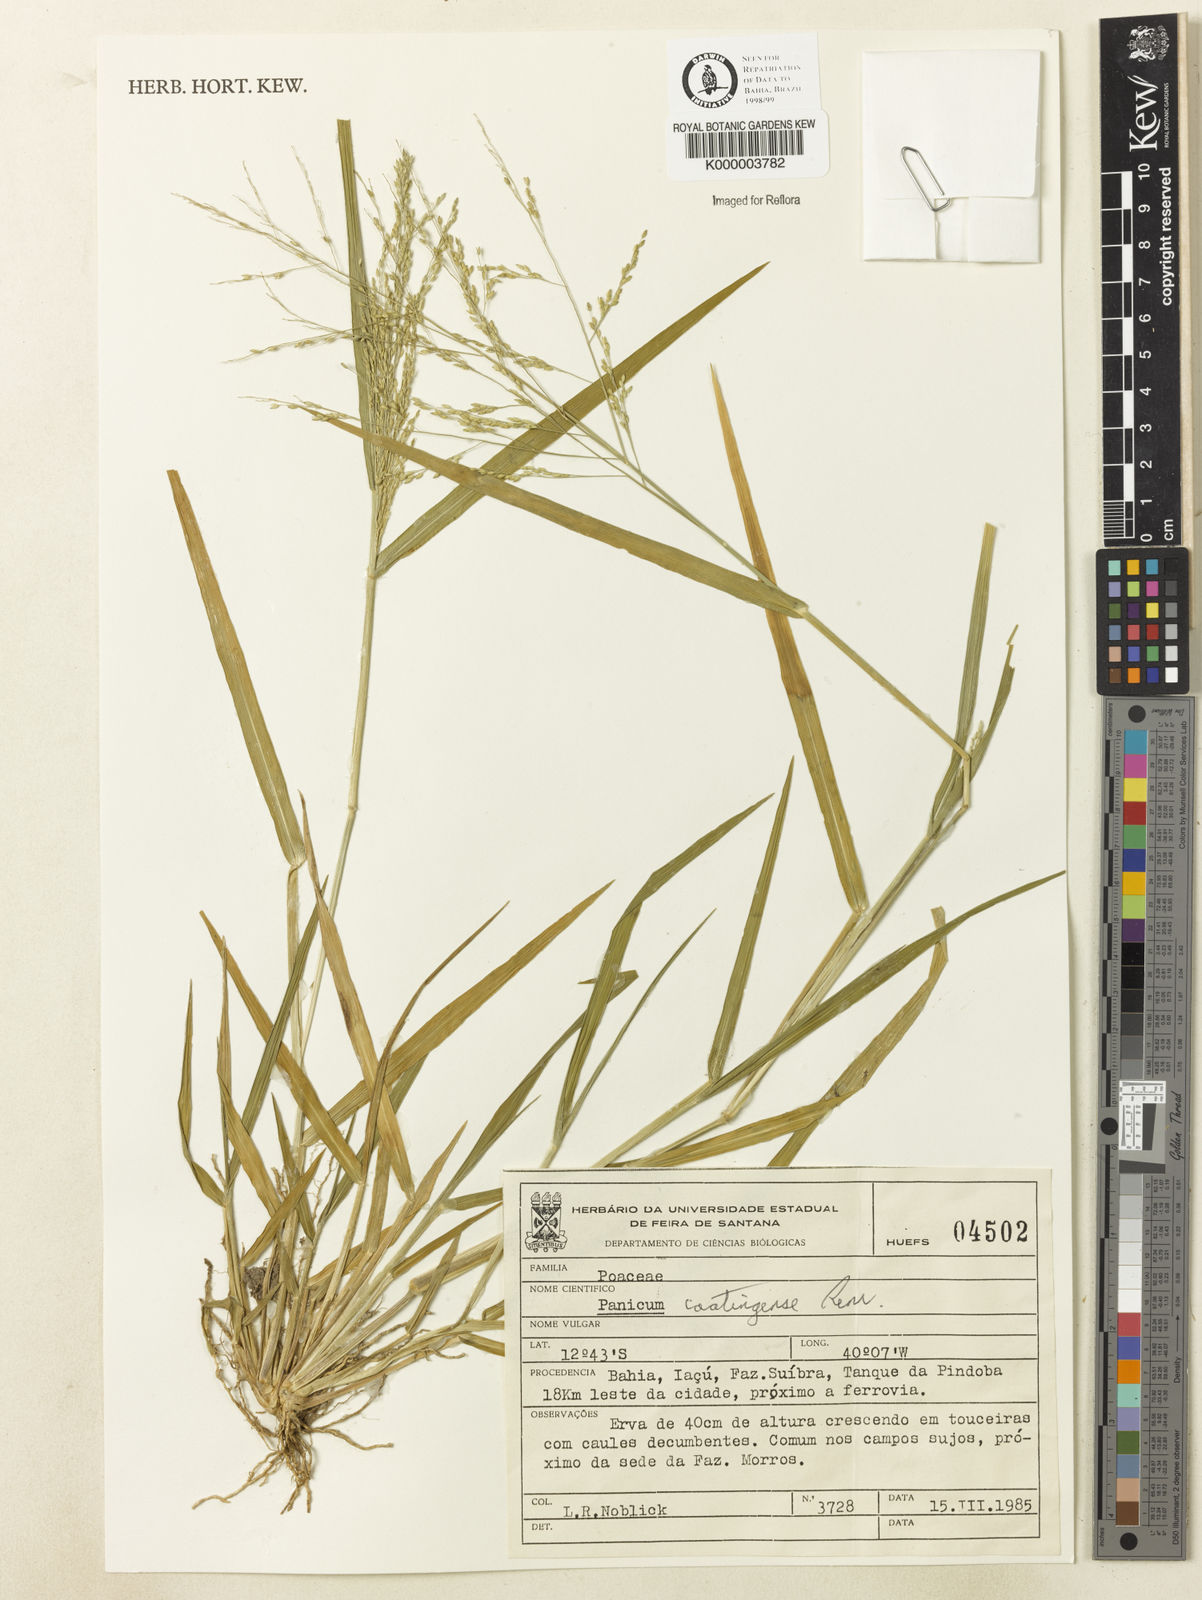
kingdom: Plantae
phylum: Tracheophyta
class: Liliopsida
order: Poales
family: Poaceae
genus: Panicum
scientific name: Panicum hirticaule
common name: Rough-stalk witchgrass
